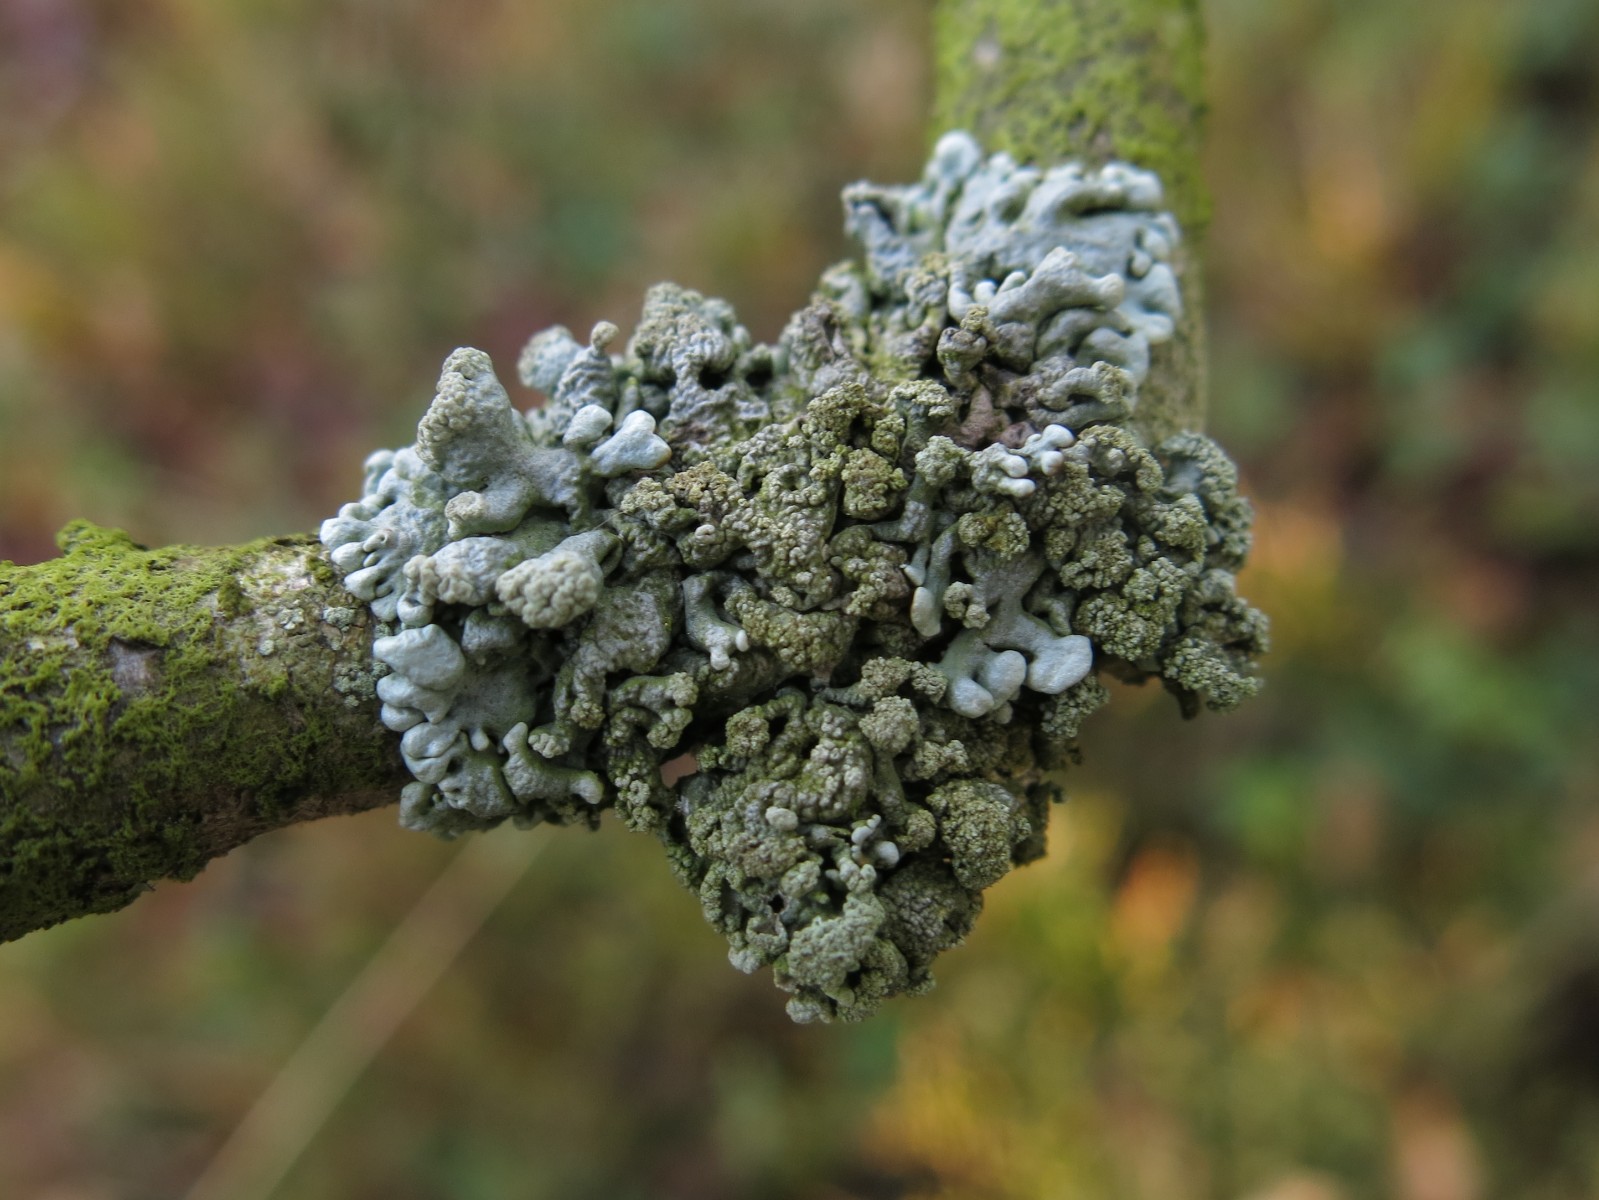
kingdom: Fungi
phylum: Ascomycota
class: Lecanoromycetes
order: Lecanorales
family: Parmeliaceae
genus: Hypogymnia
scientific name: Hypogymnia physodes
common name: almindelig kvistlav
